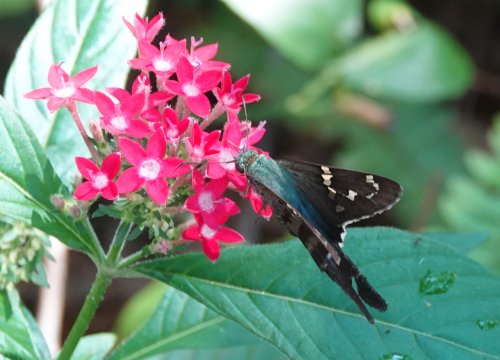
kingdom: Animalia
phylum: Arthropoda
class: Insecta
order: Lepidoptera
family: Hesperiidae
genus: Urbanus
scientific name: Urbanus proteus
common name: Long-tailed Skipper
